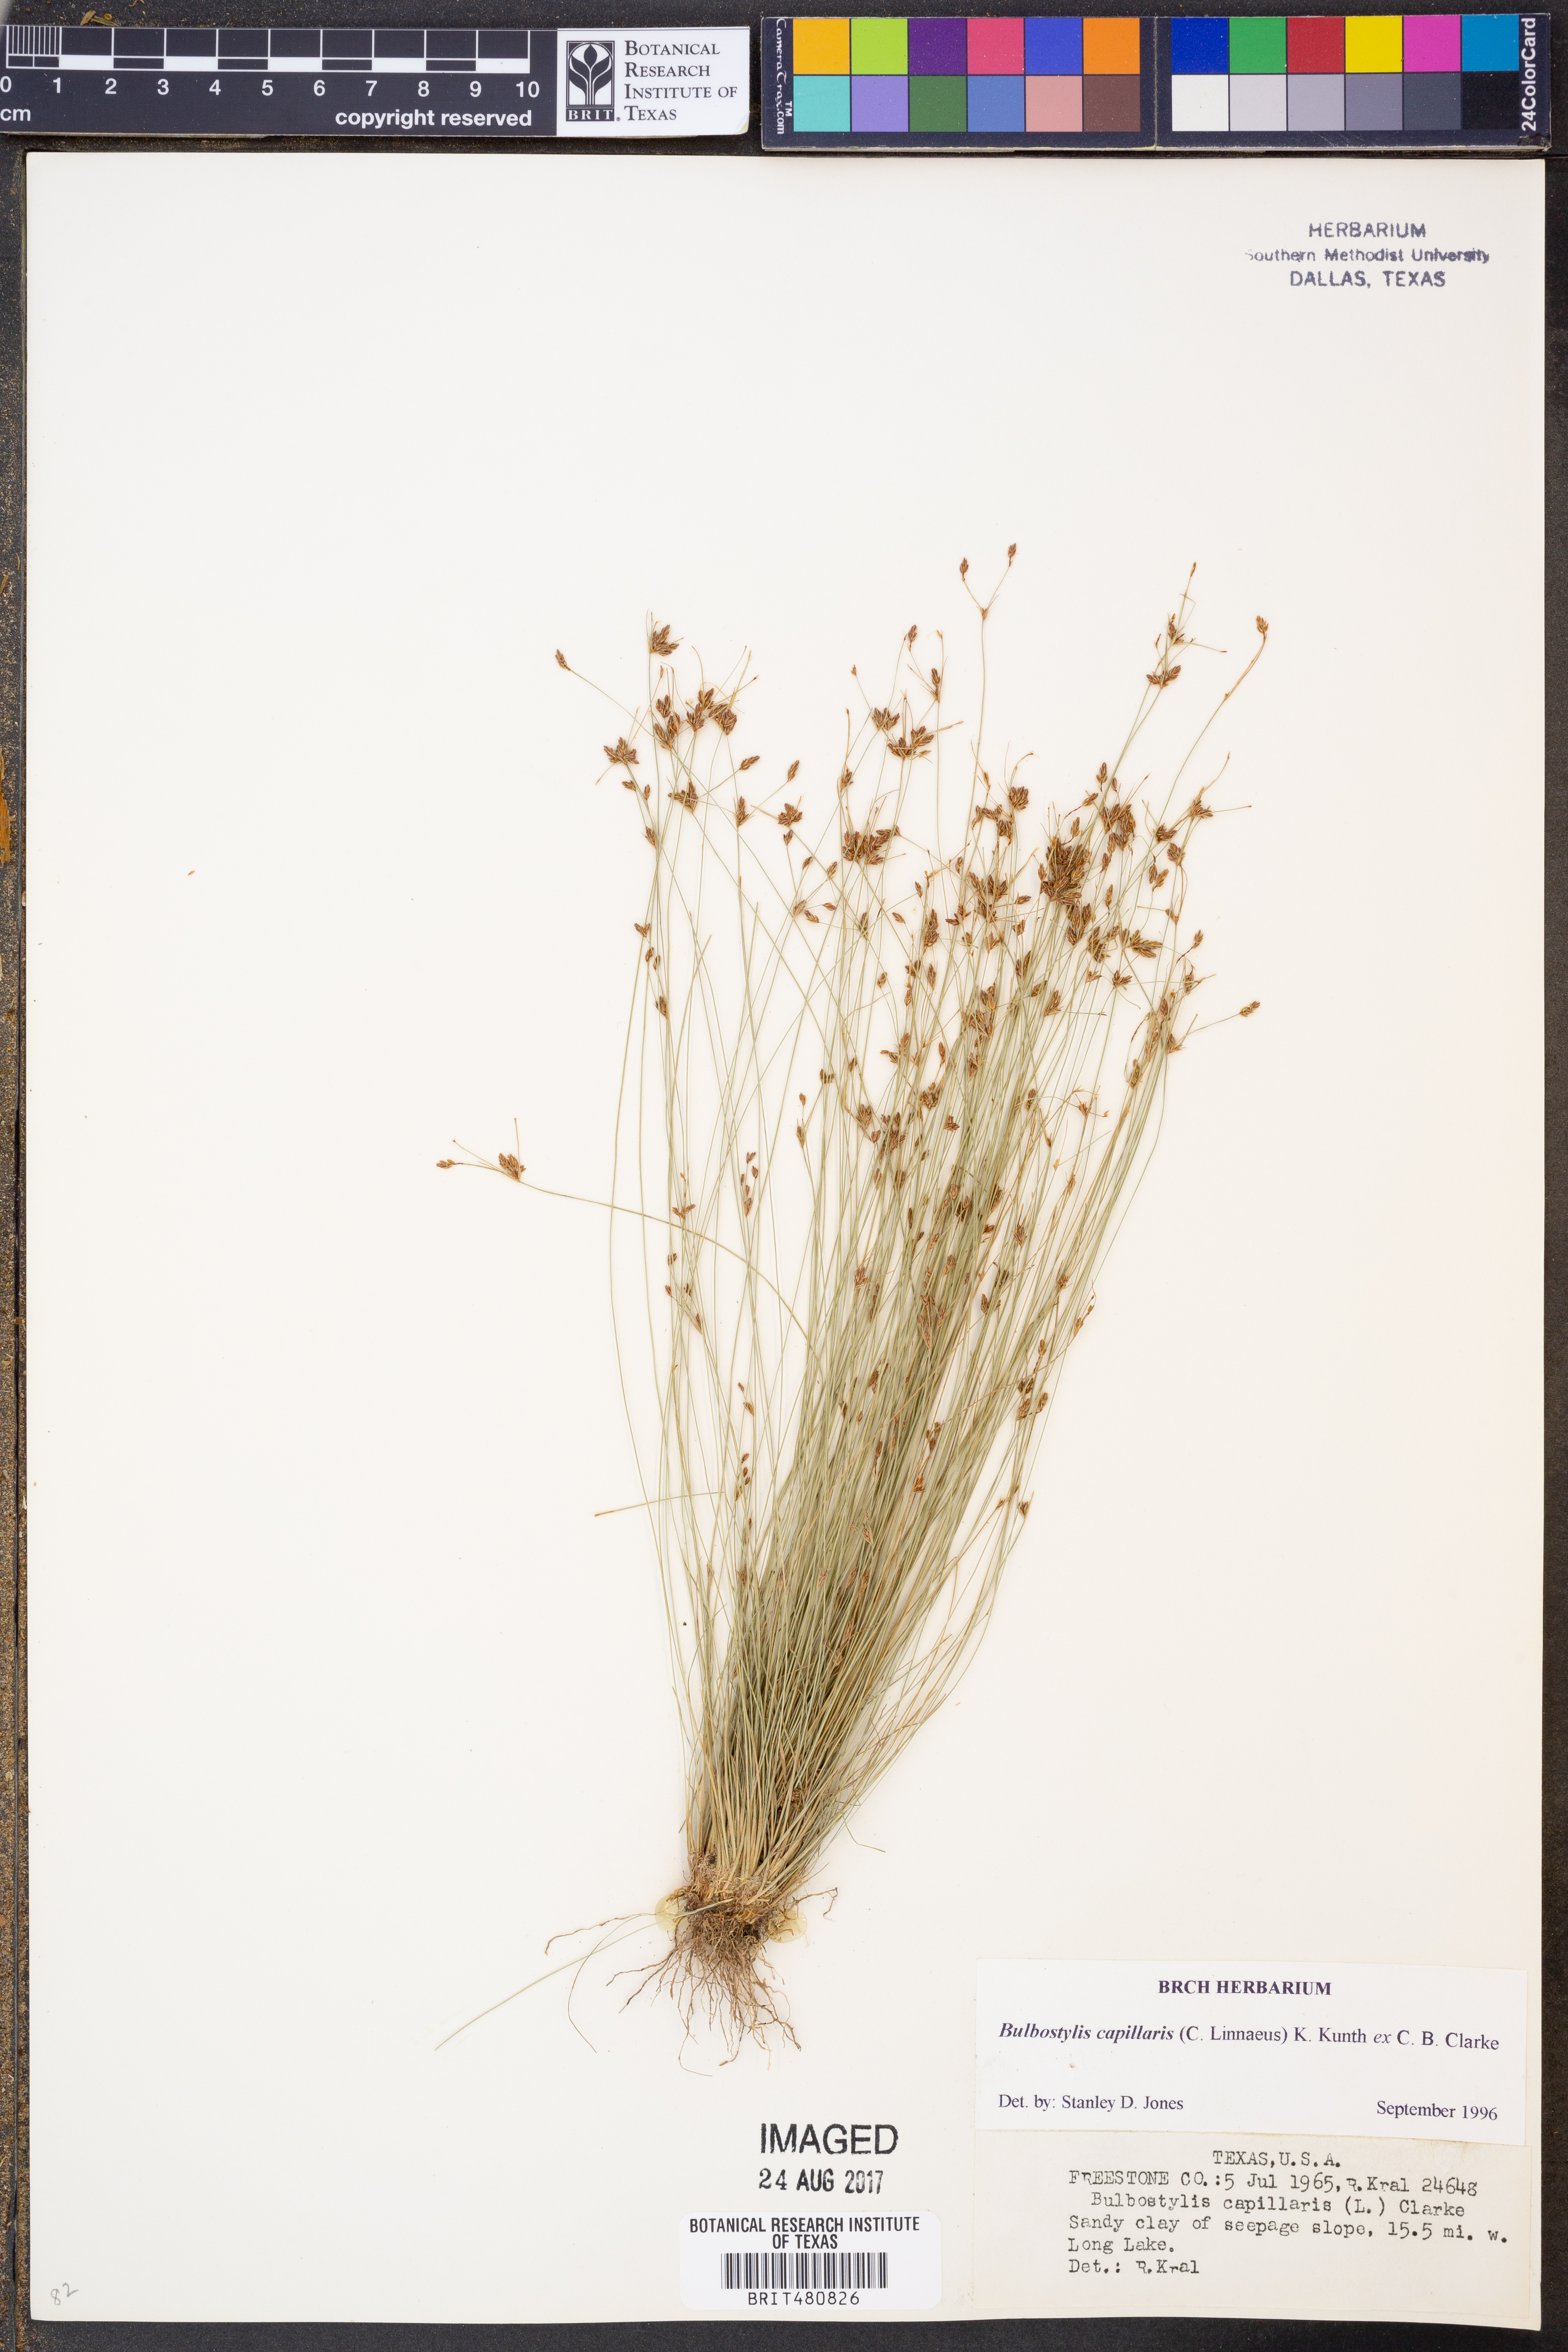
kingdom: Plantae
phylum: Tracheophyta
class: Liliopsida
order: Poales
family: Cyperaceae
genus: Bulbostylis
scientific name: Bulbostylis capillaris
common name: Densetuft hairsedge
